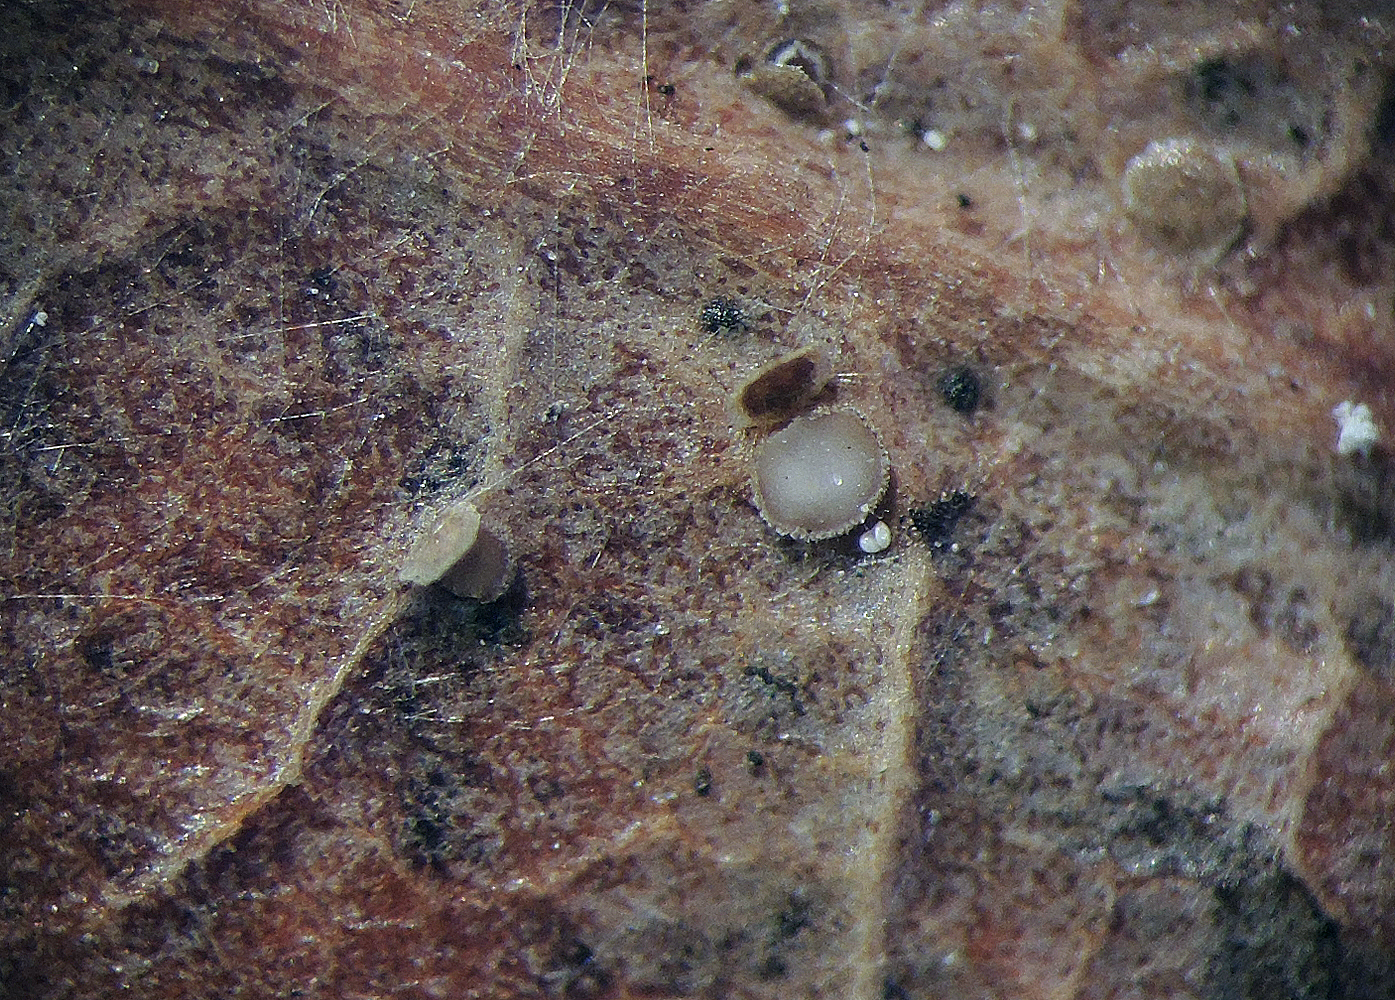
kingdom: Fungi
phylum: Ascomycota
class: Leotiomycetes
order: Helotiales
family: Dermateaceae
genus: Hysterostegiella
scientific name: Hysterostegiella quercea
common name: egeblad-lågskive
